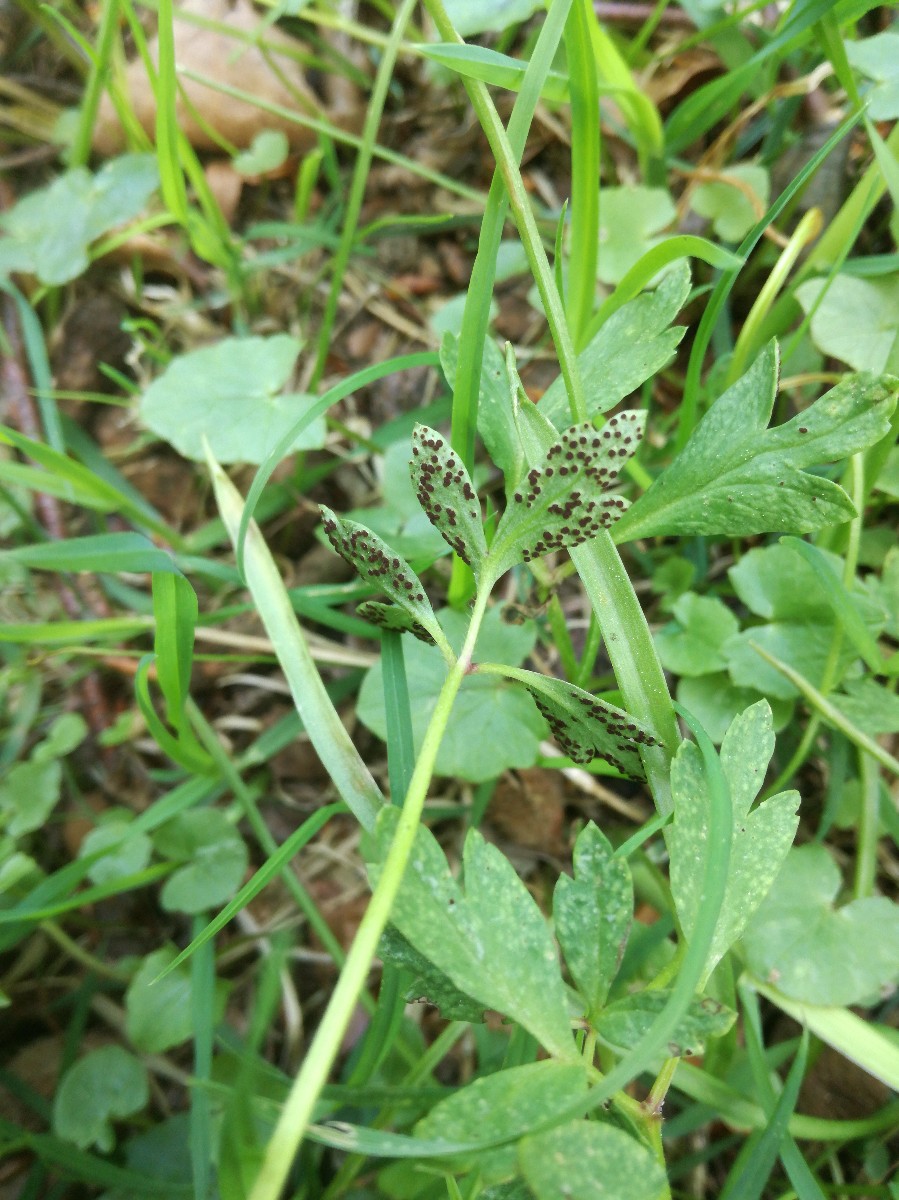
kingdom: Fungi
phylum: Basidiomycota
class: Pucciniomycetes
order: Pucciniales
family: Tranzscheliaceae
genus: Tranzschelia
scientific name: Tranzschelia anemones
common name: anemone-knæksporerust
